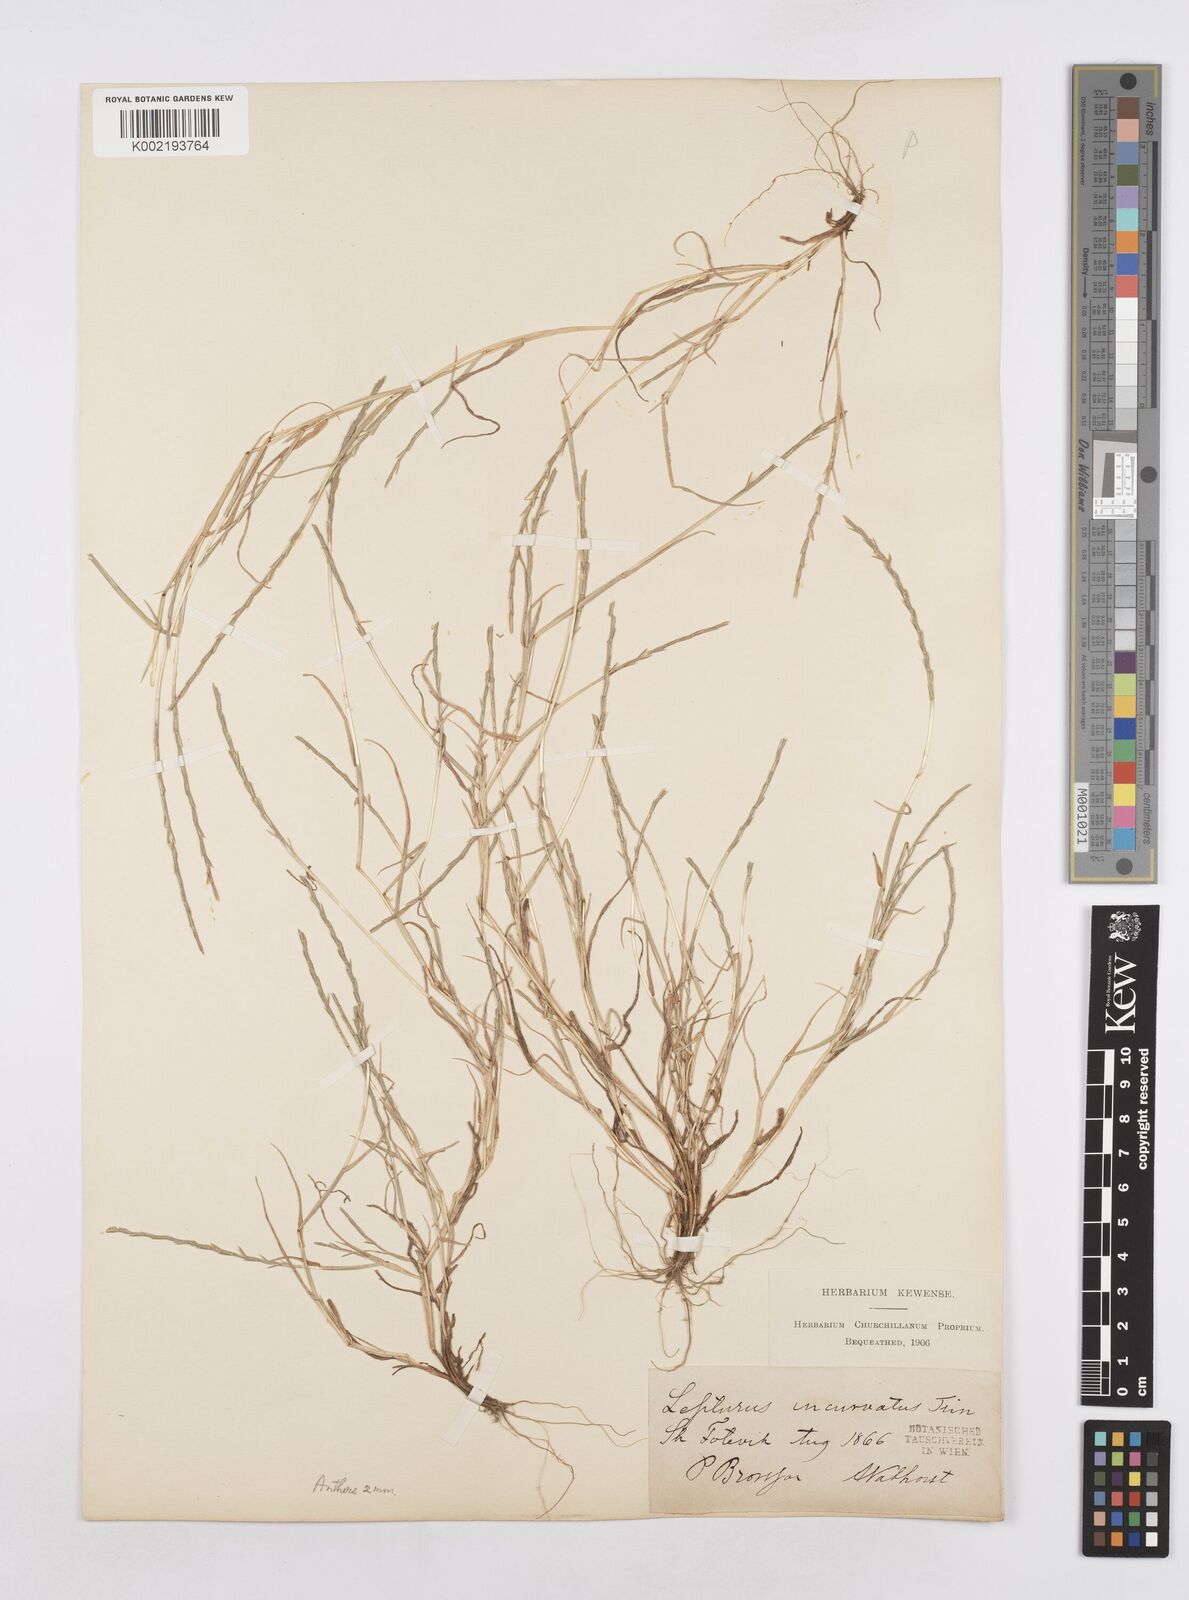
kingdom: Plantae
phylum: Tracheophyta
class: Liliopsida
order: Poales
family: Poaceae
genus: Parapholis
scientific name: Parapholis
